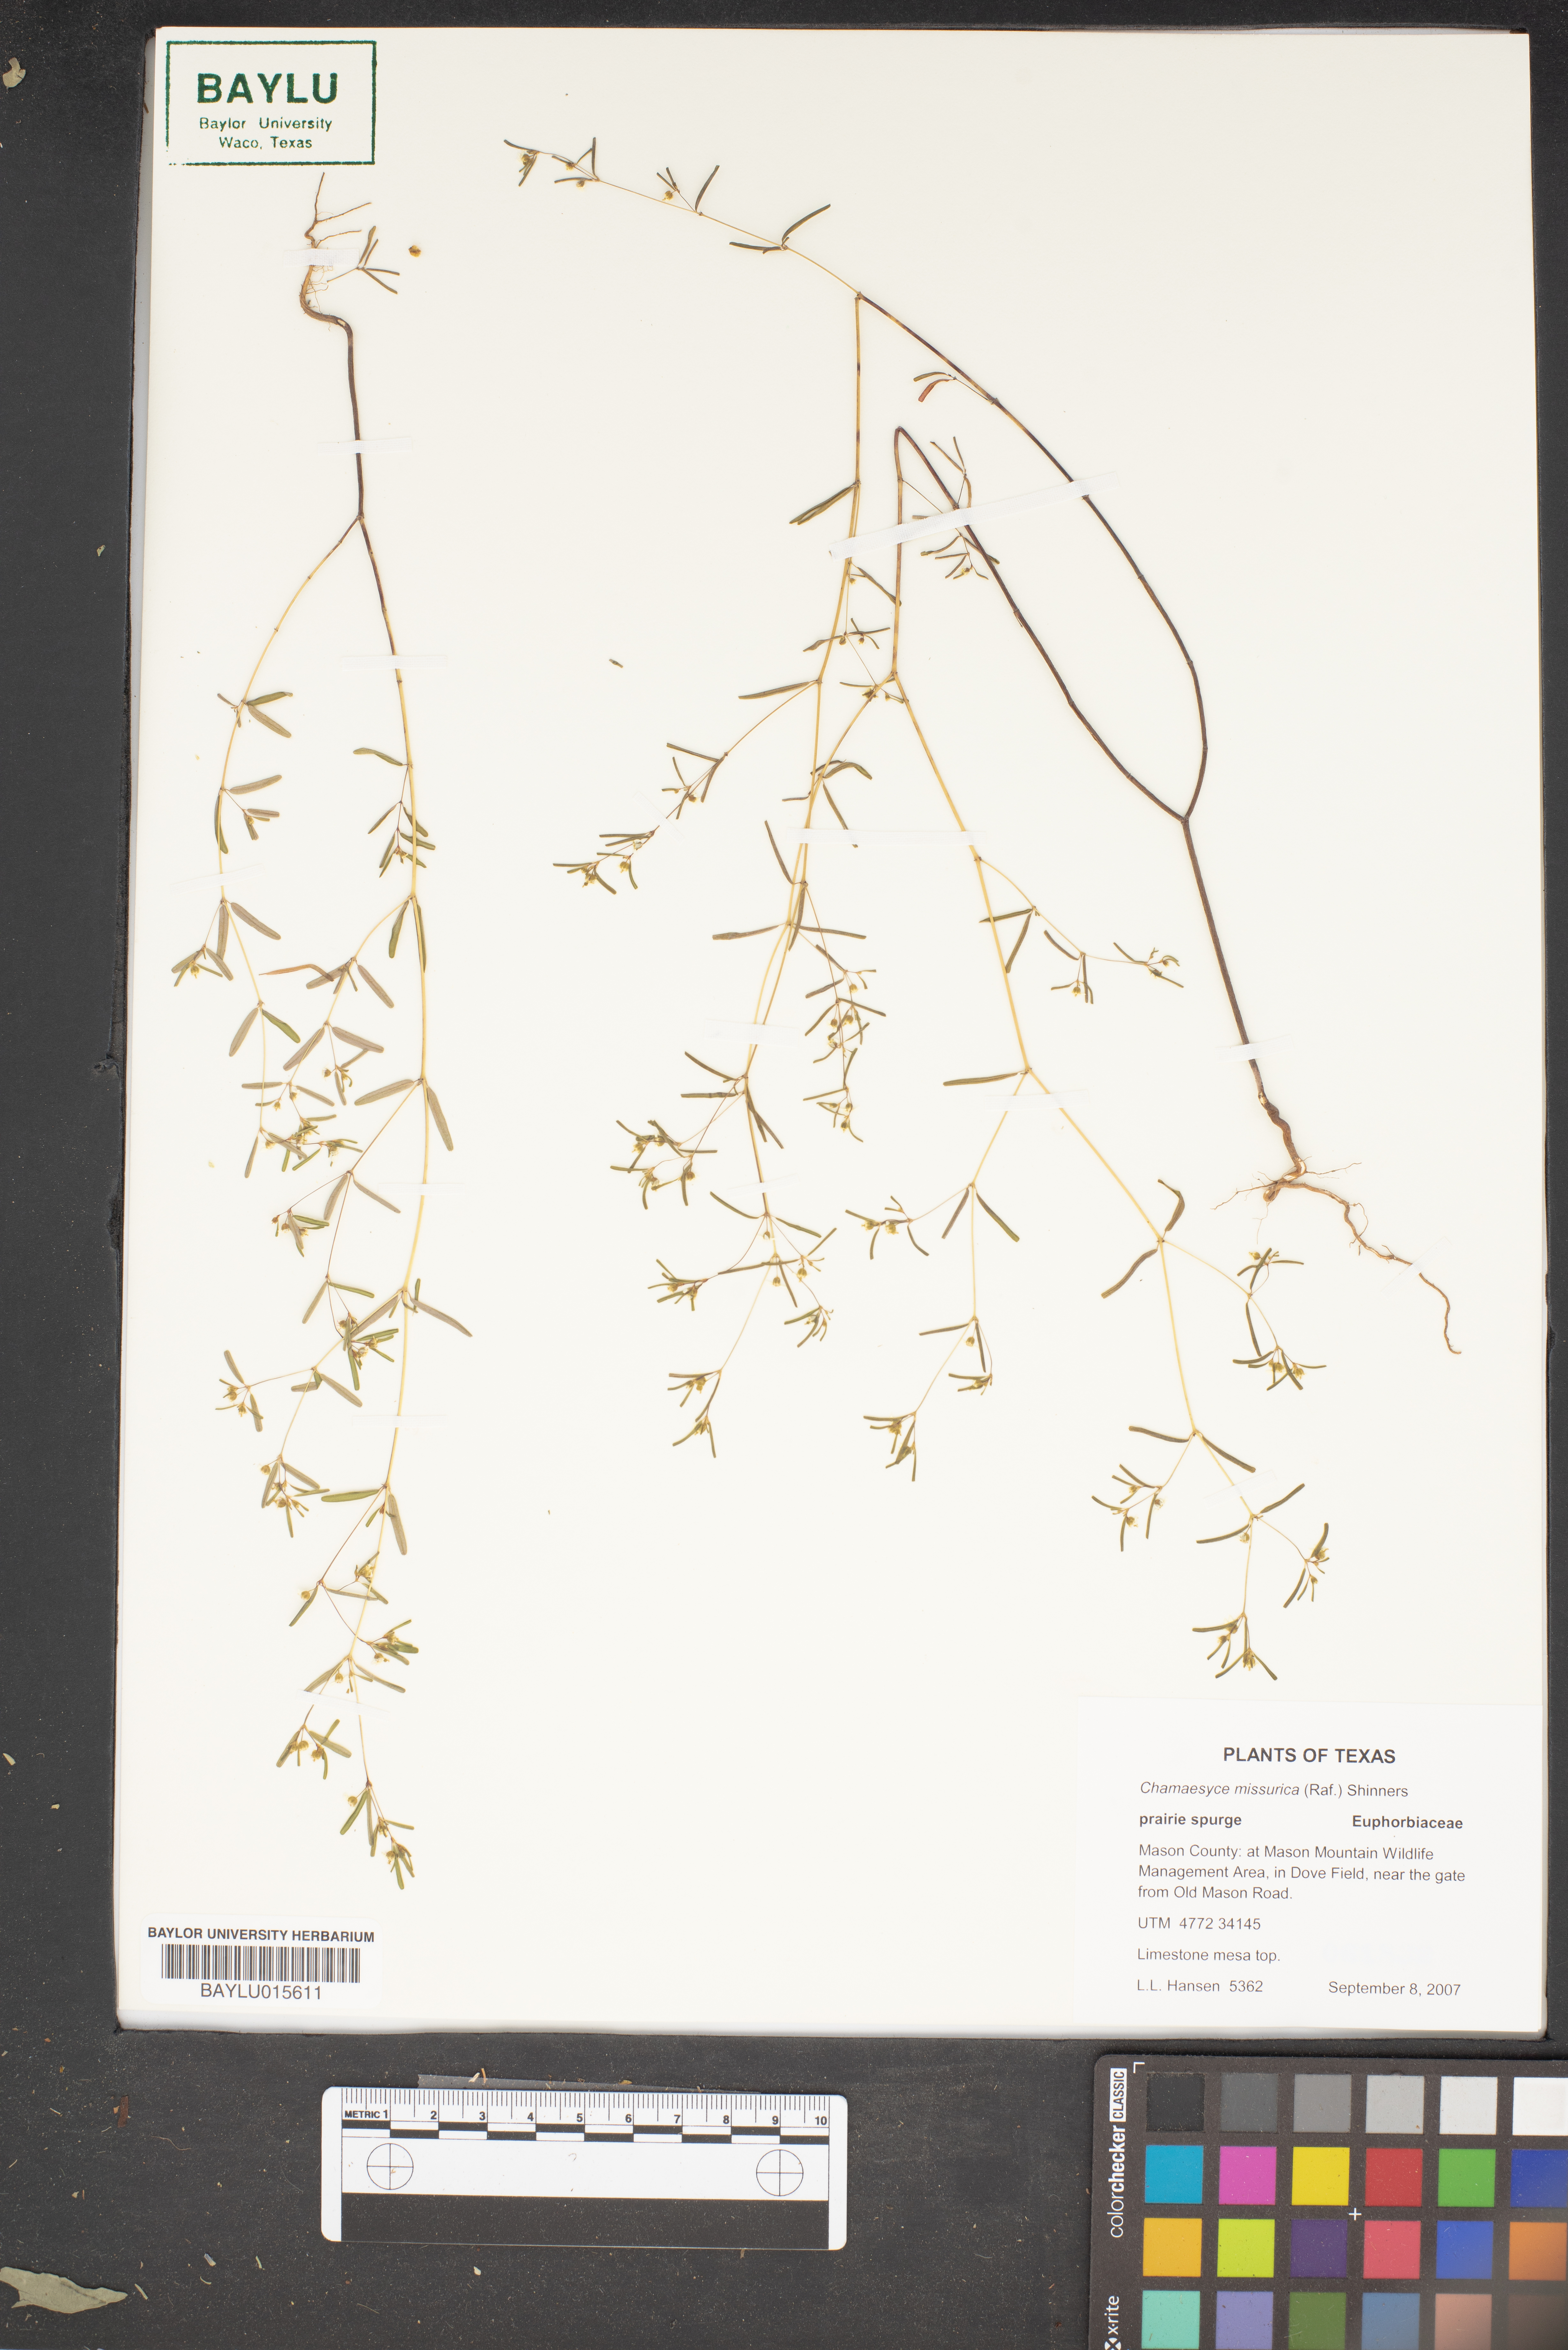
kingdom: Plantae
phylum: Tracheophyta
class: Magnoliopsida
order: Malpighiales
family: Euphorbiaceae
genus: Euphorbia
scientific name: Euphorbia missurica
